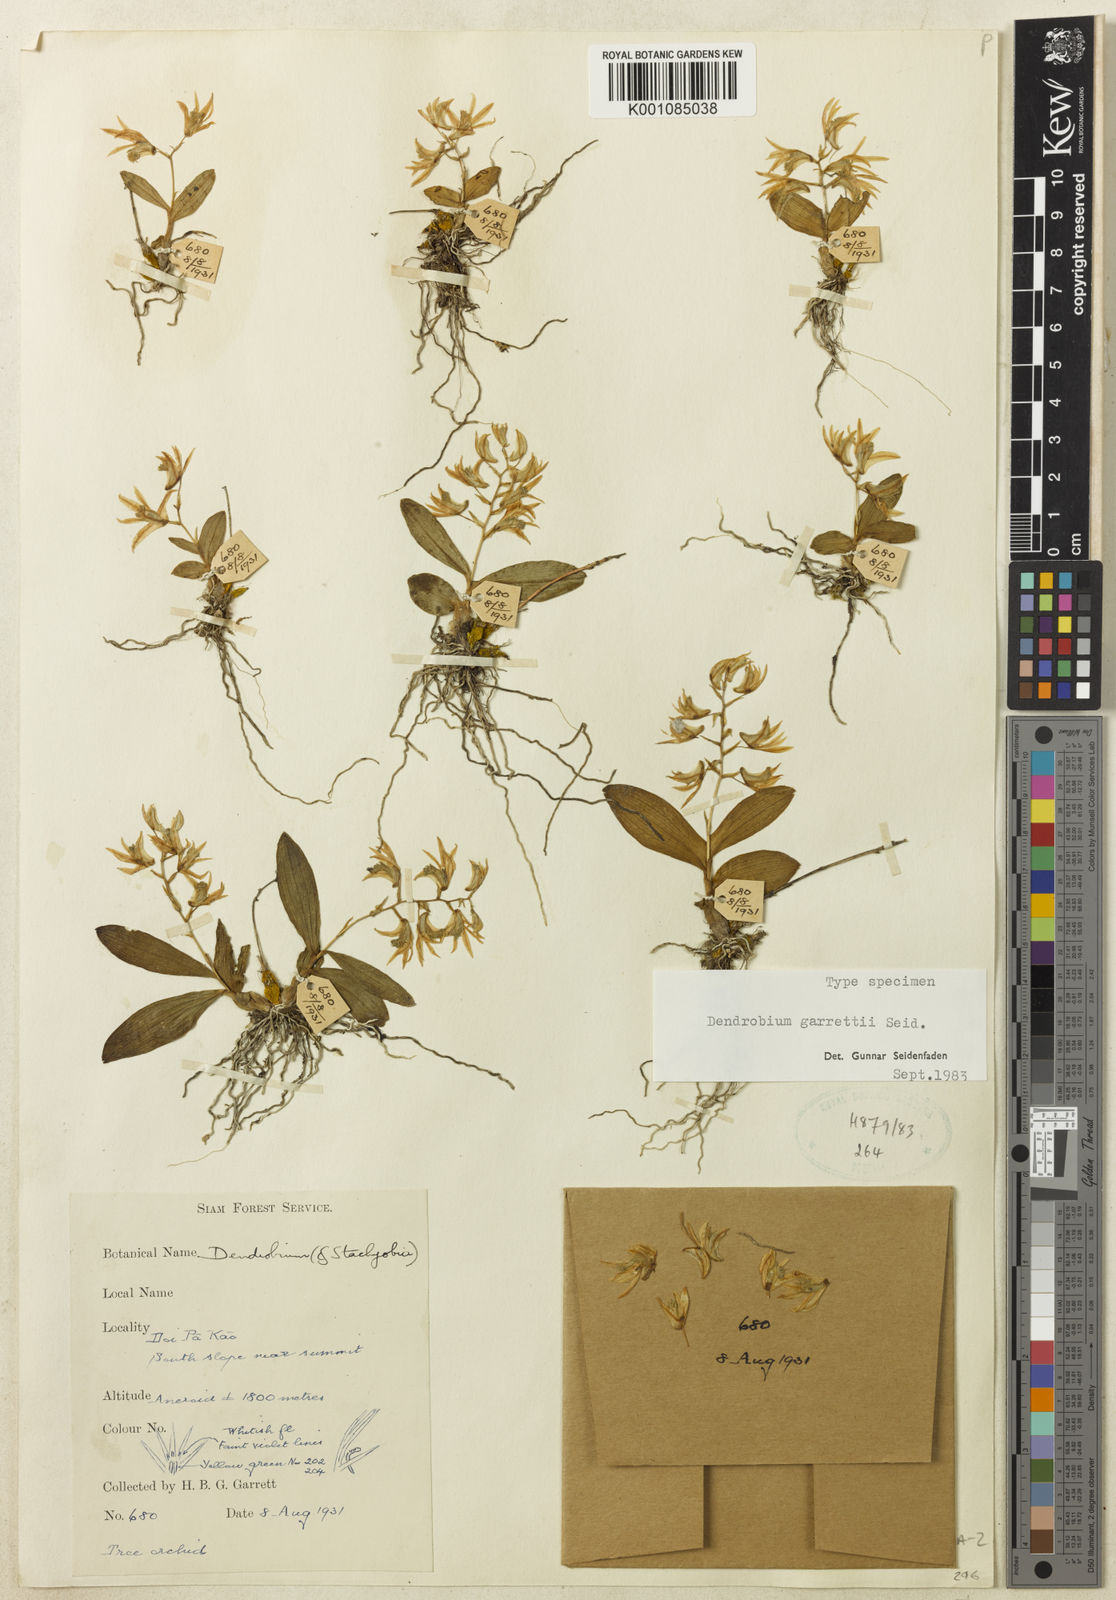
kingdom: Plantae
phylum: Tracheophyta
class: Liliopsida
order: Asparagales
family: Orchidaceae
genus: Dendrobium
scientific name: Dendrobium garrettii
